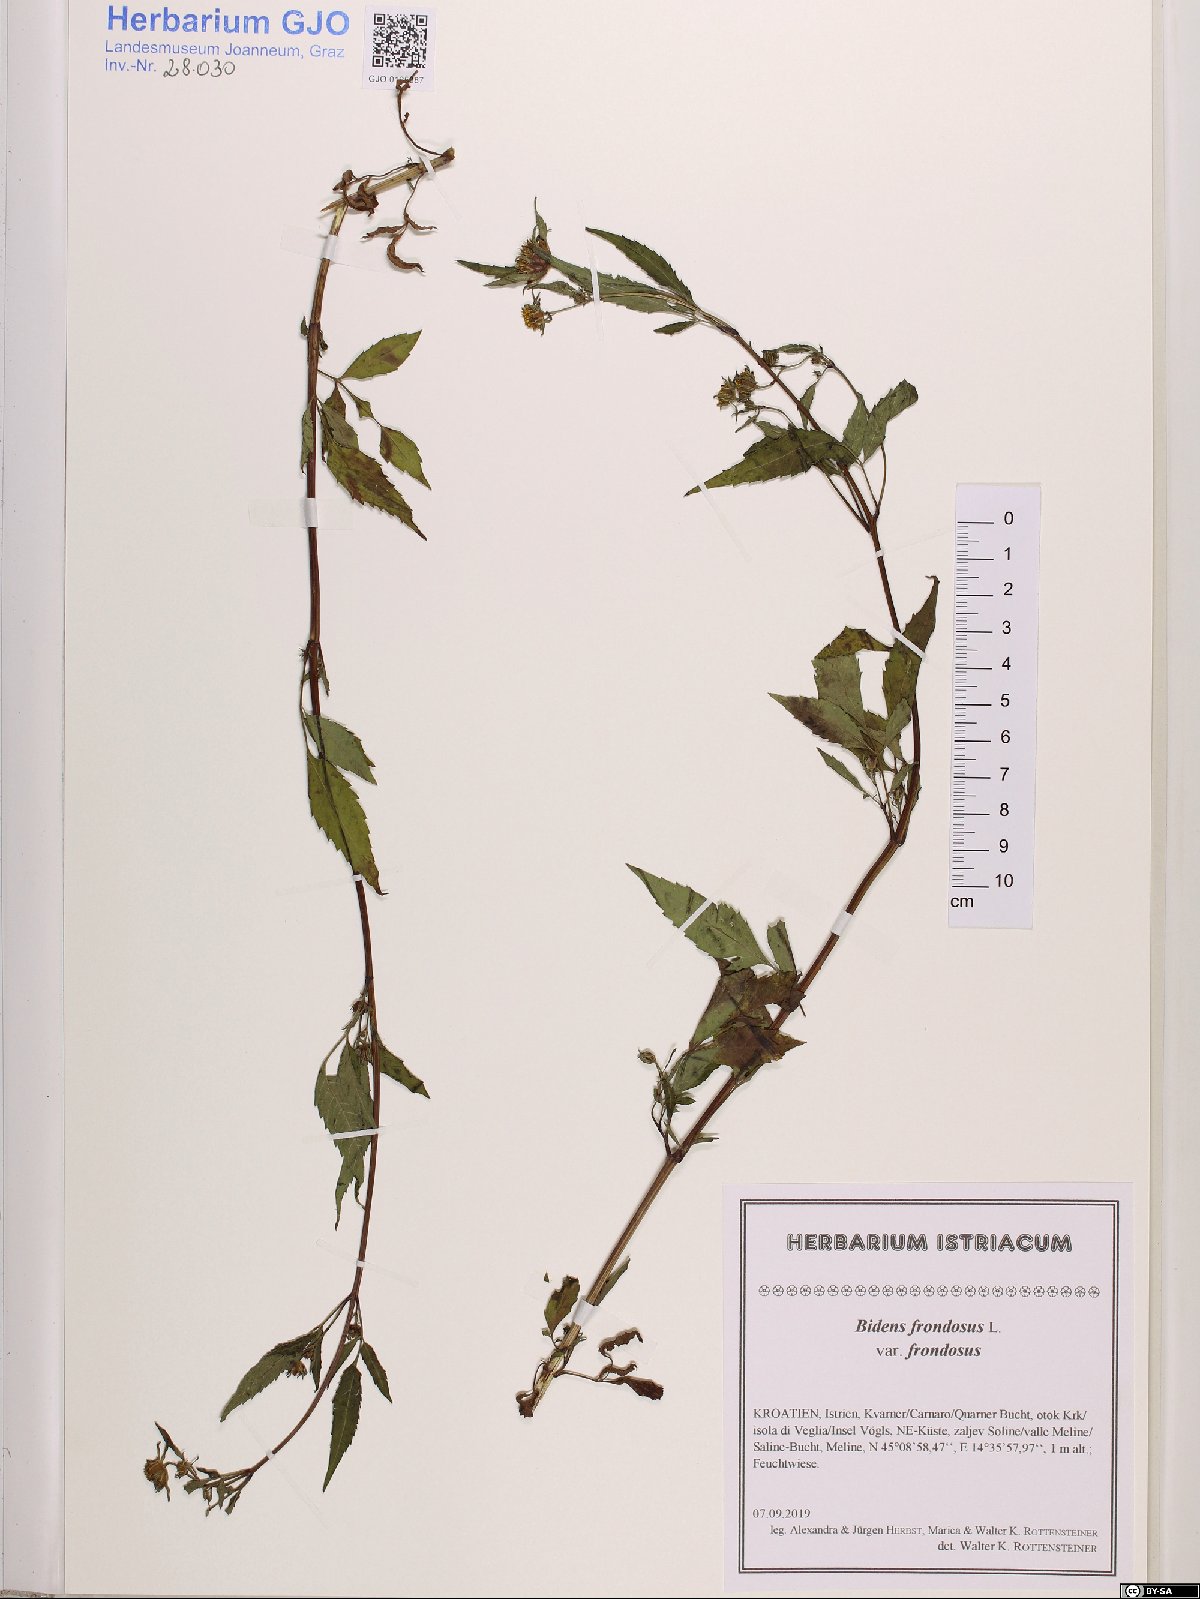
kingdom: Plantae
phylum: Tracheophyta
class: Magnoliopsida
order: Asterales
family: Asteraceae
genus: Bidens
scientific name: Bidens frondosa
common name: Beggarticks
